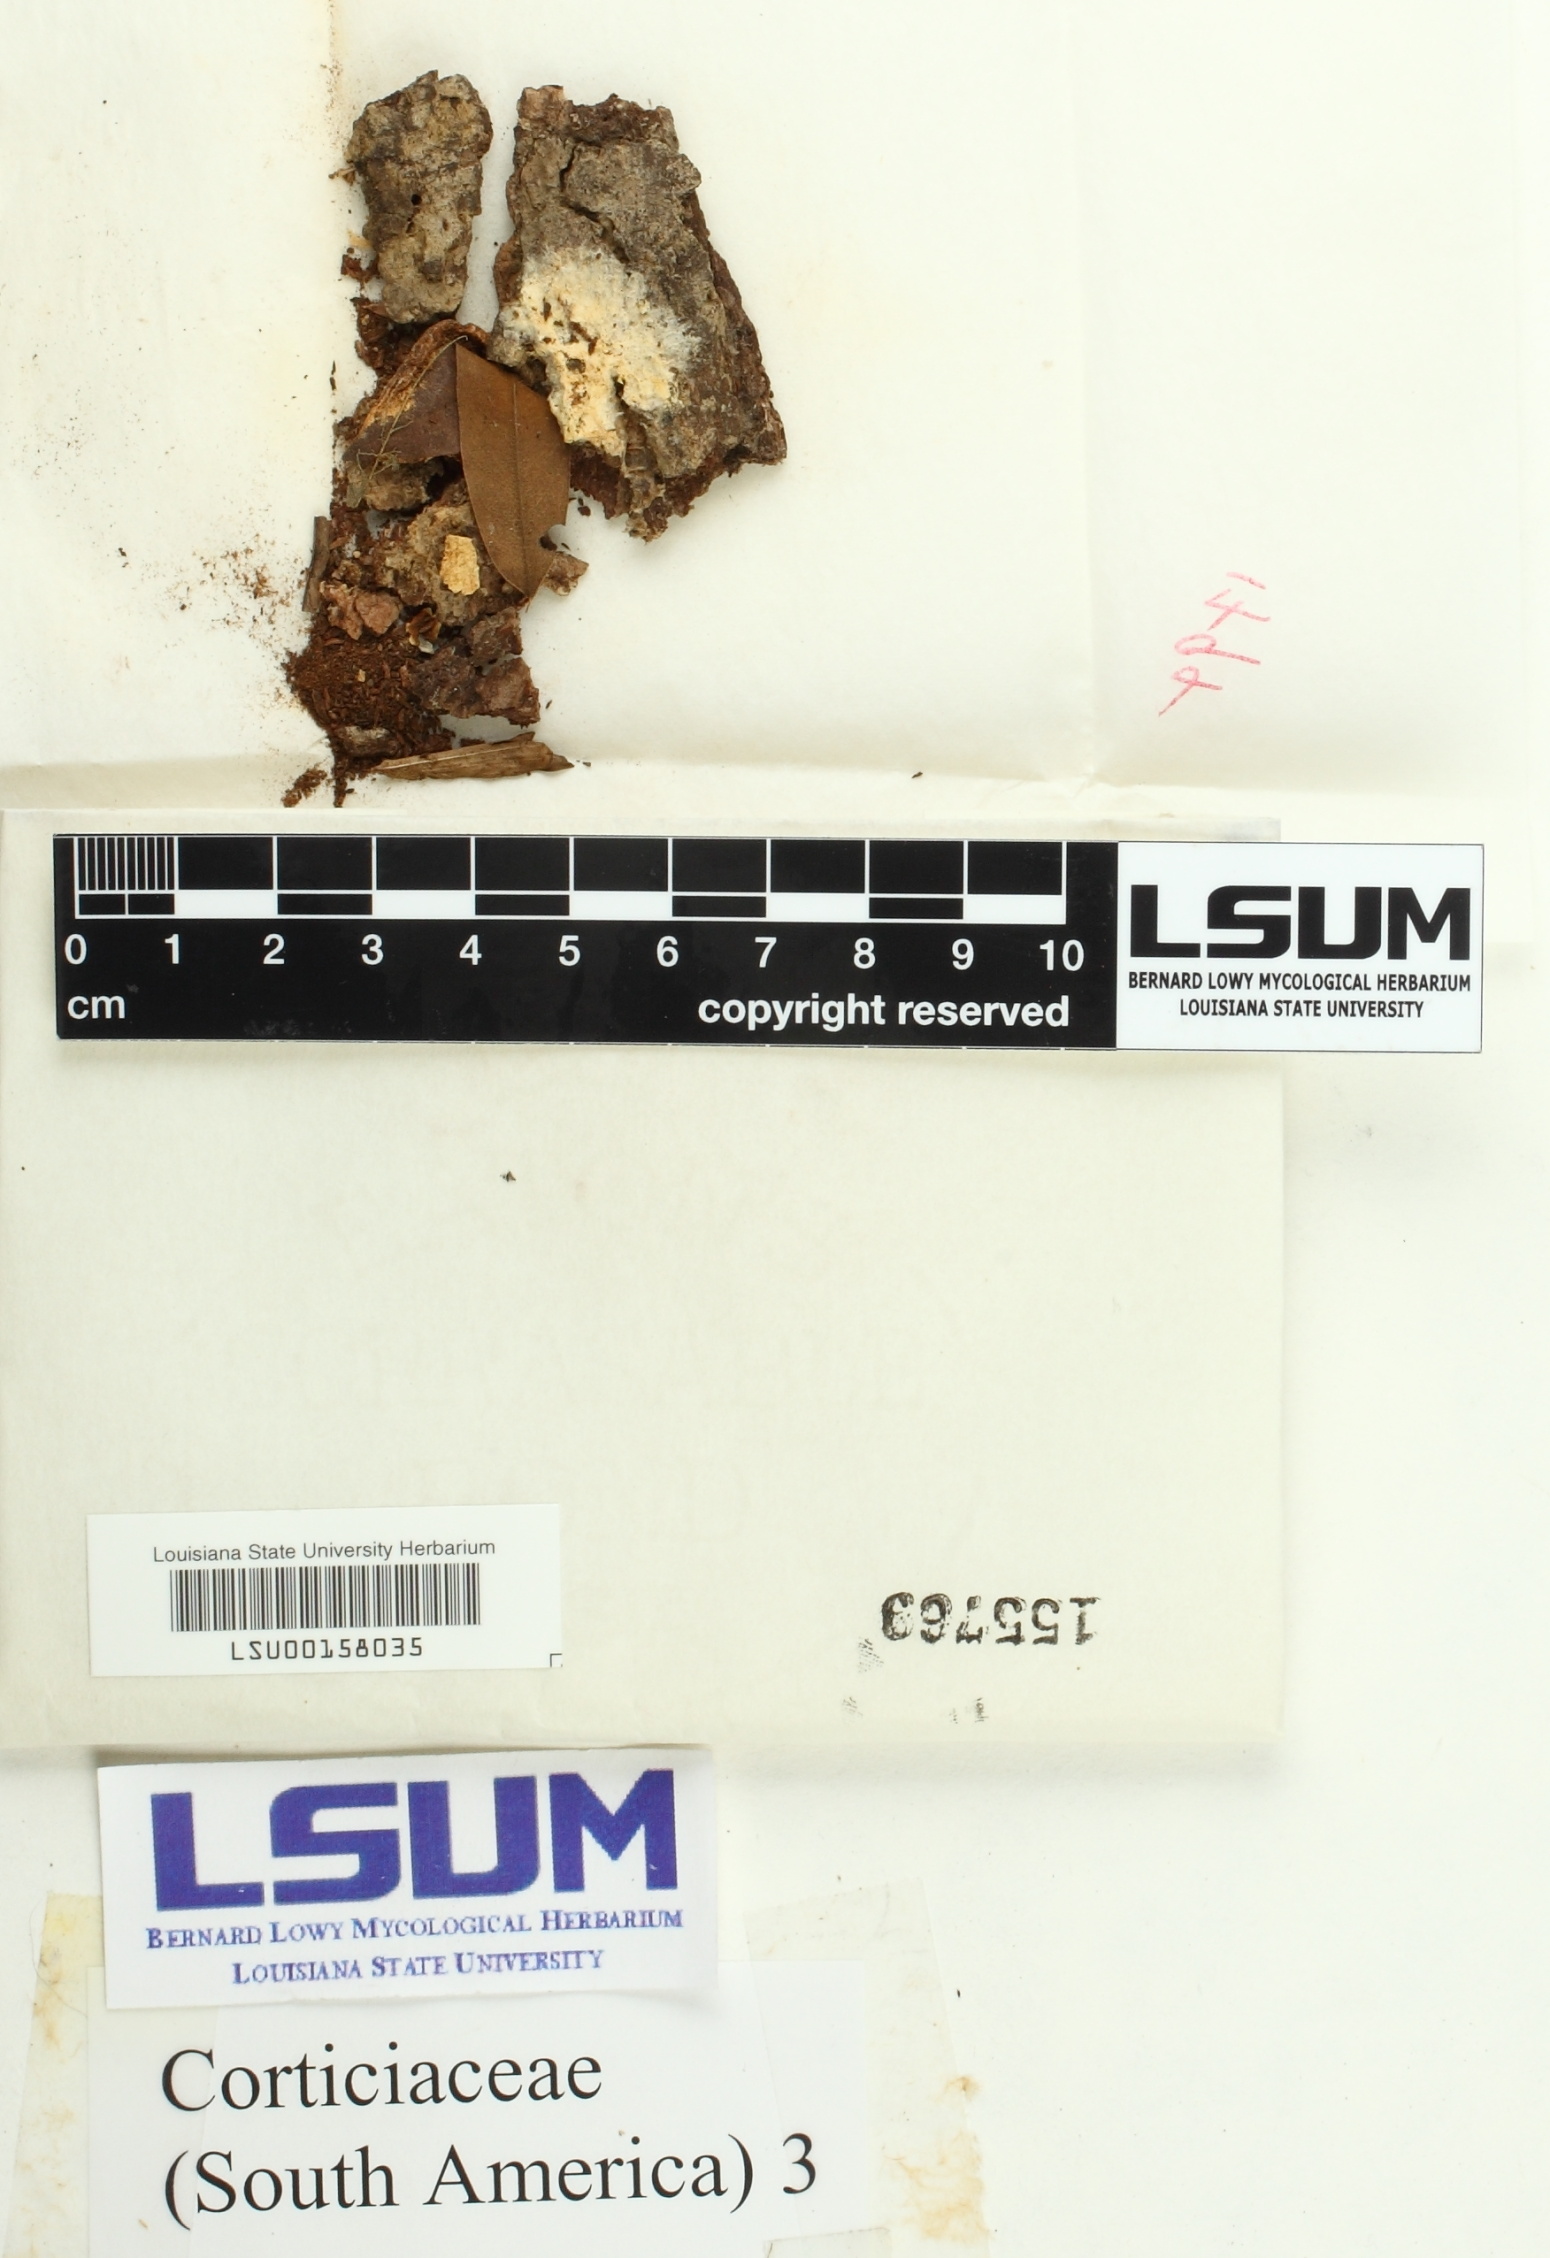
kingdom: Fungi
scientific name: Fungi
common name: Fungi
